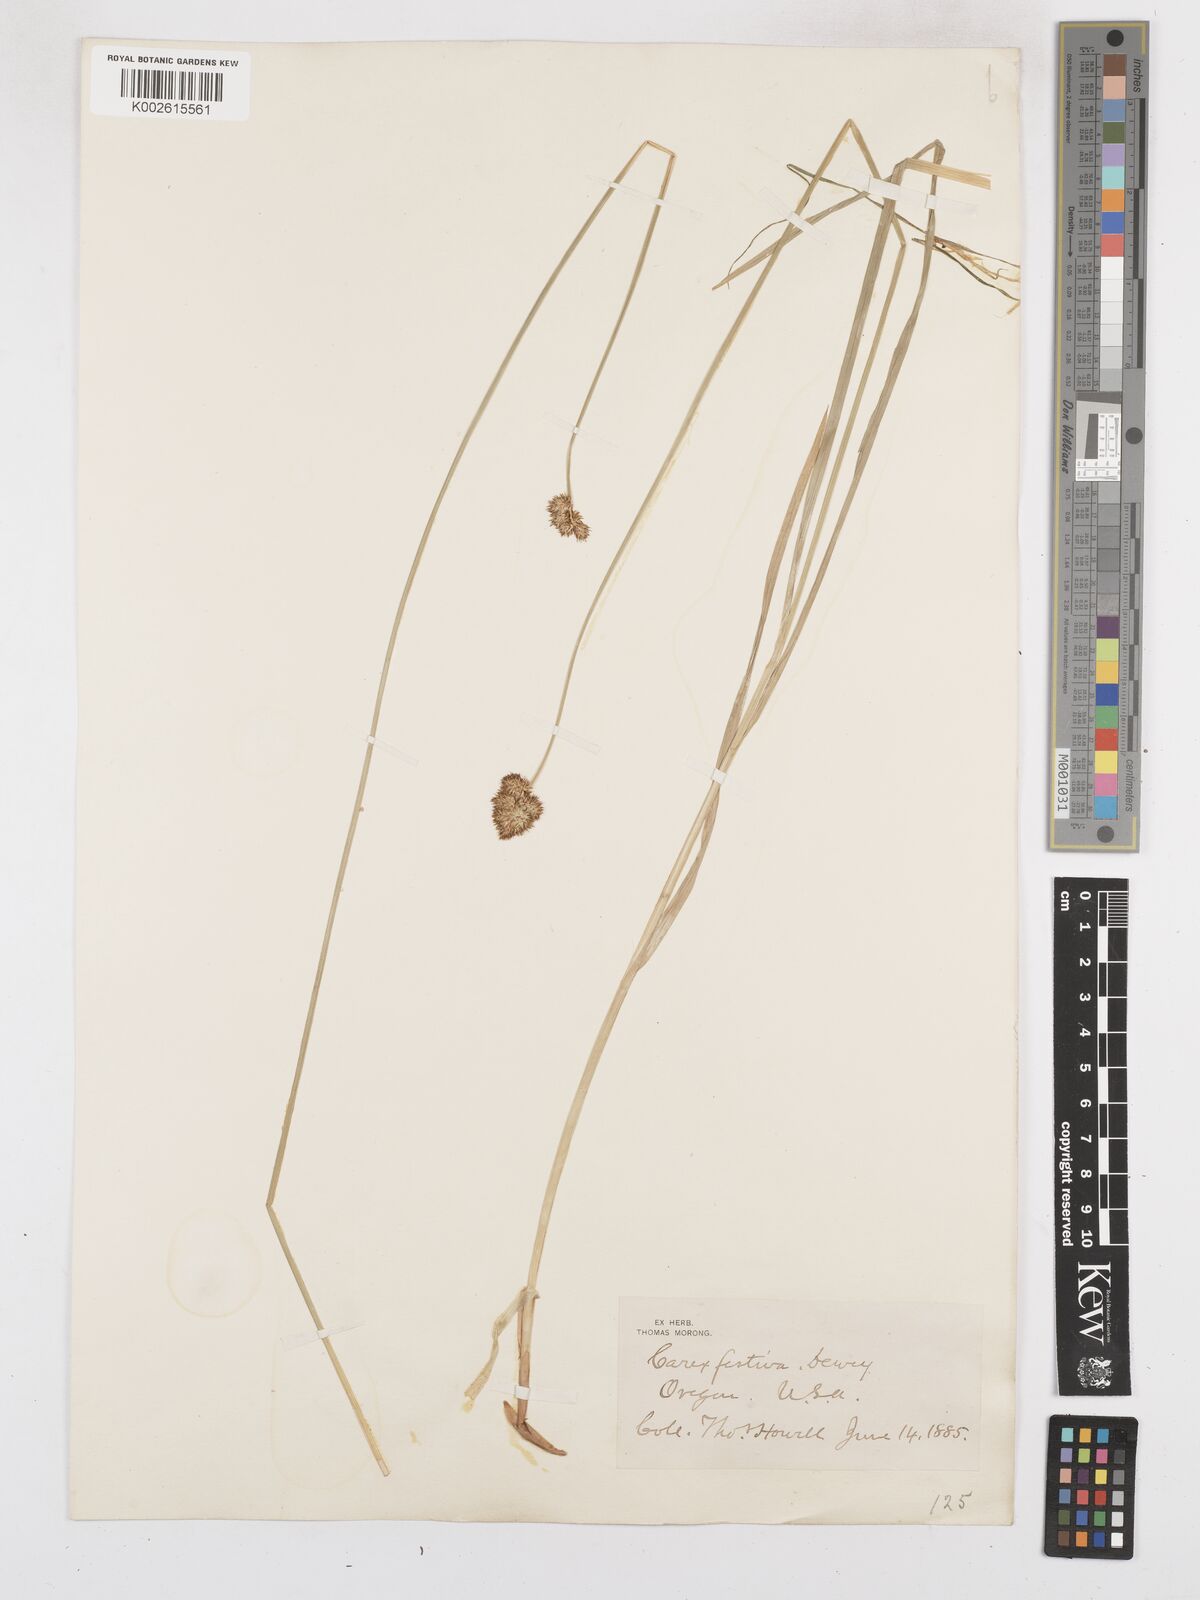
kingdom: Plantae
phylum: Tracheophyta
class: Liliopsida
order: Poales
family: Cyperaceae
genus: Carex
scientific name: Carex macloviana
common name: Falkland island sedge
